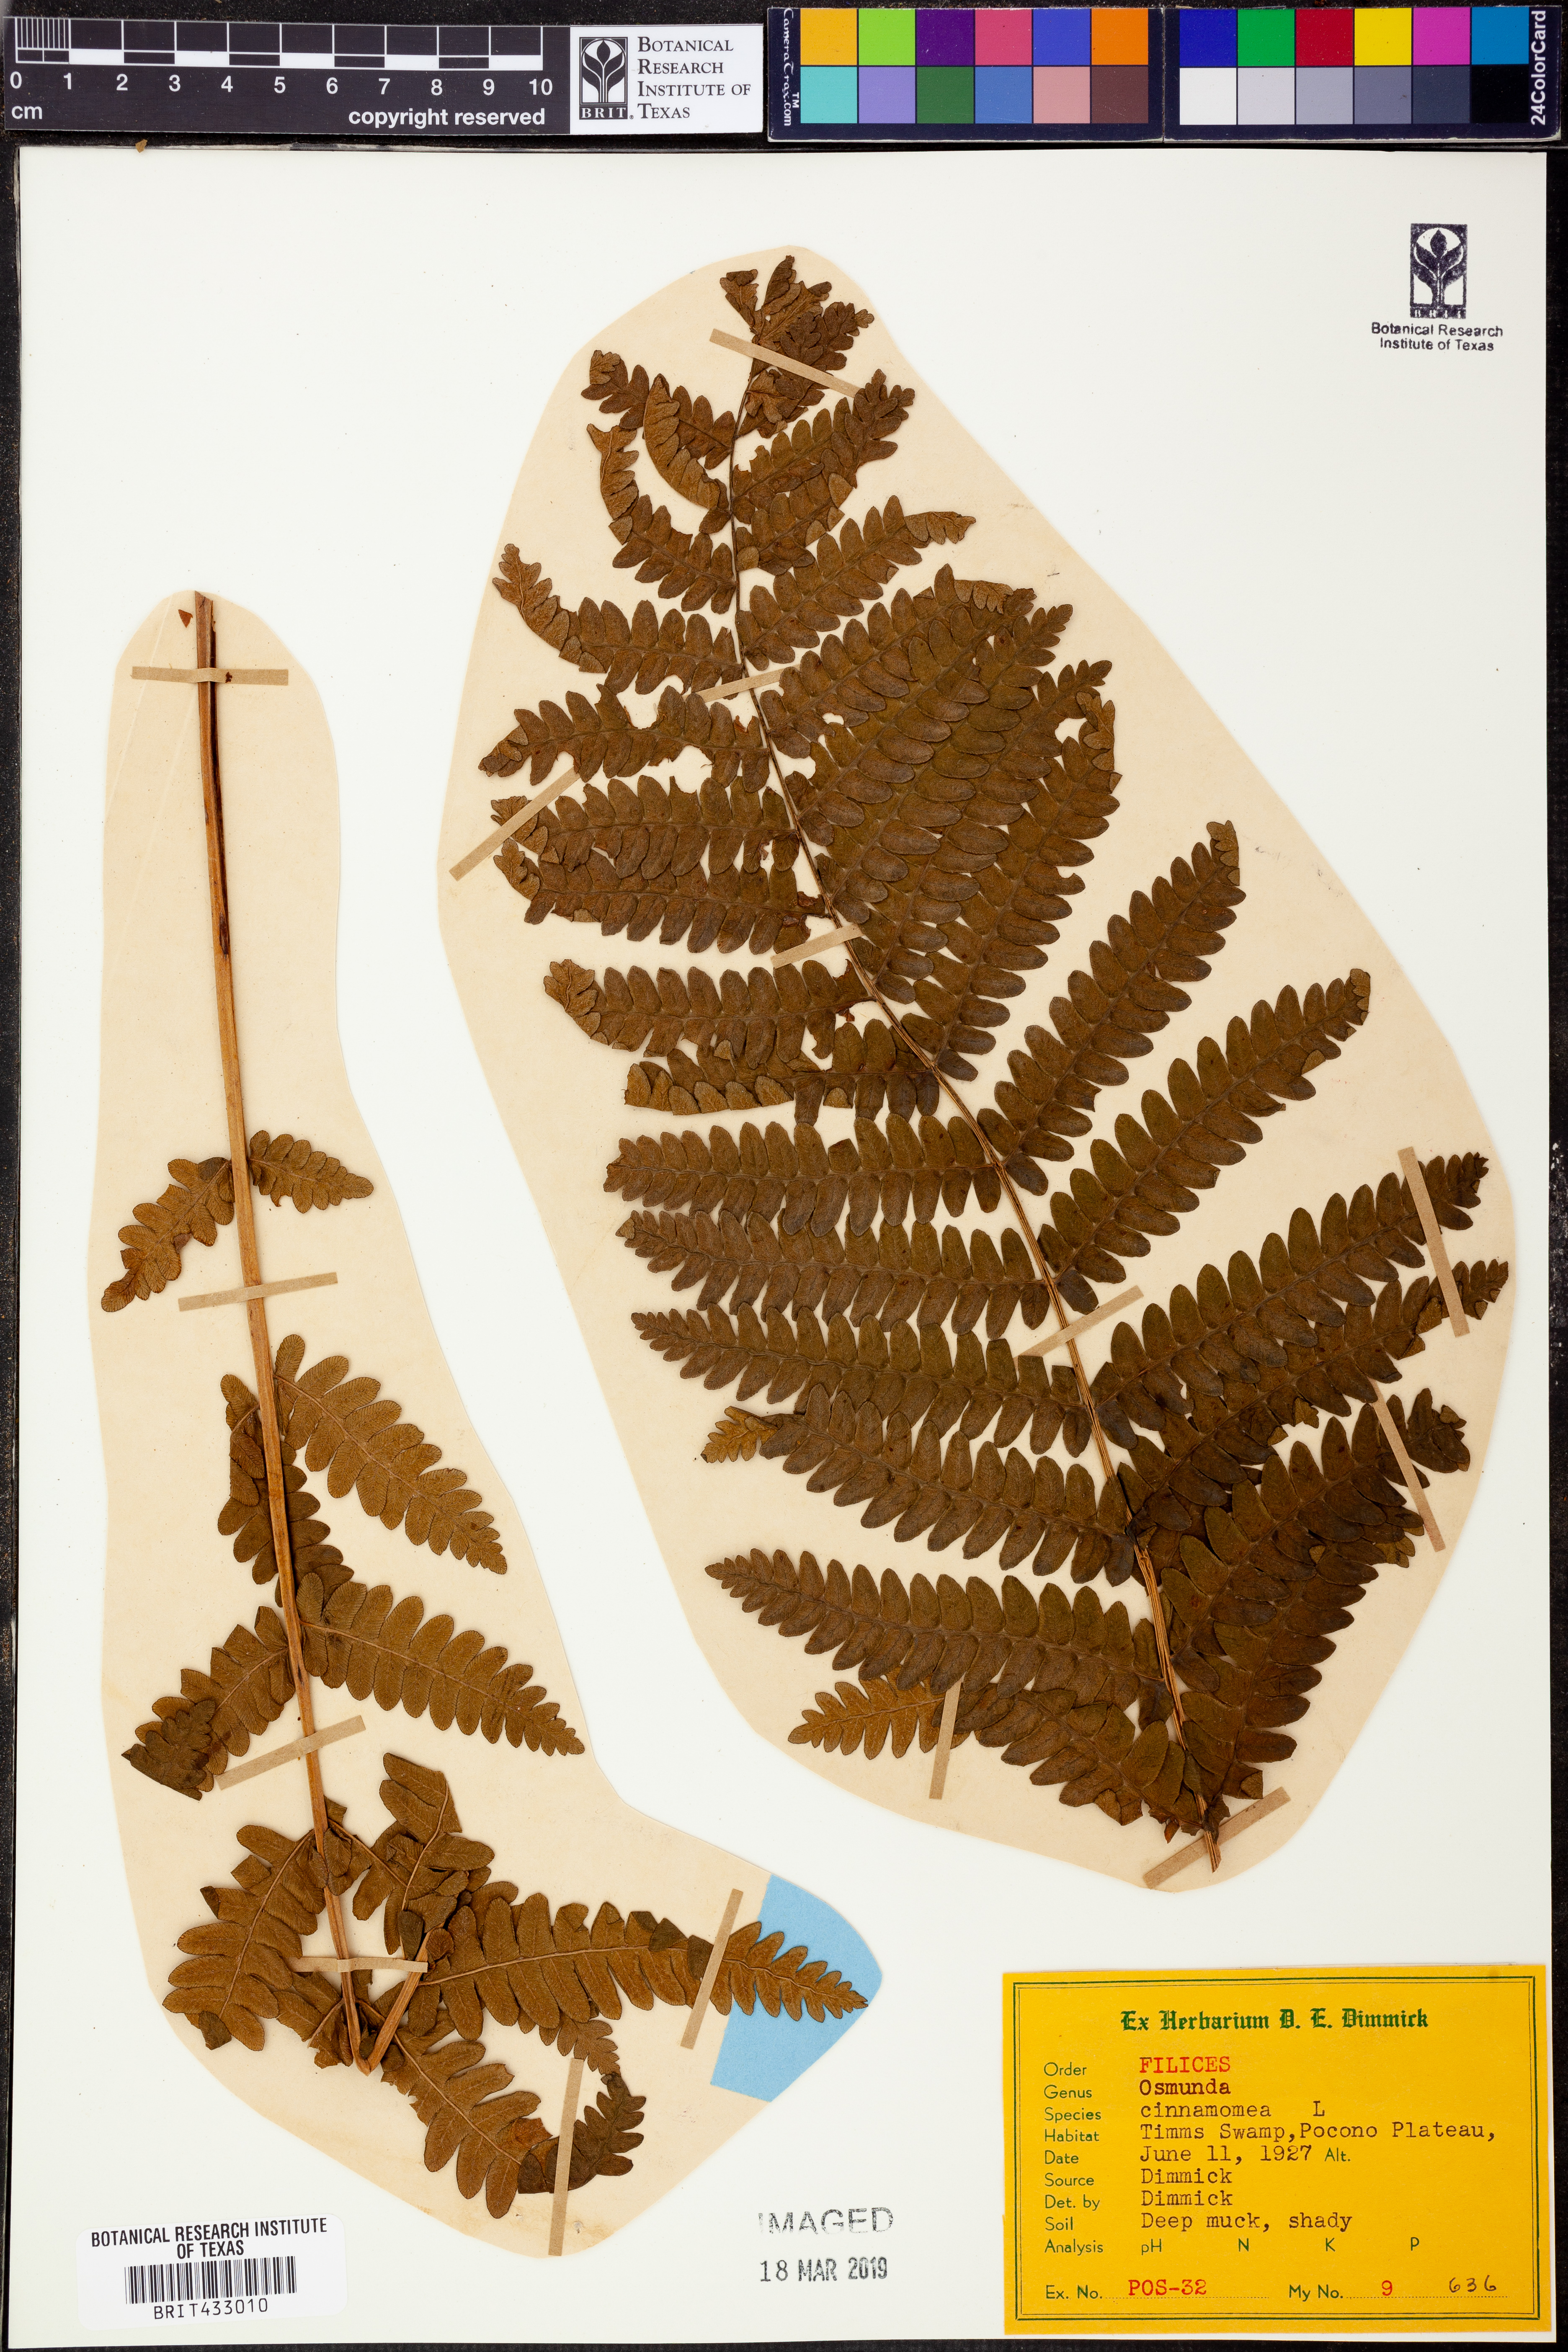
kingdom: Plantae
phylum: Tracheophyta
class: Polypodiopsida
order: Osmundales
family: Osmundaceae
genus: Osmundastrum
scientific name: Osmundastrum cinnamomeum
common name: Cinnamon fern
